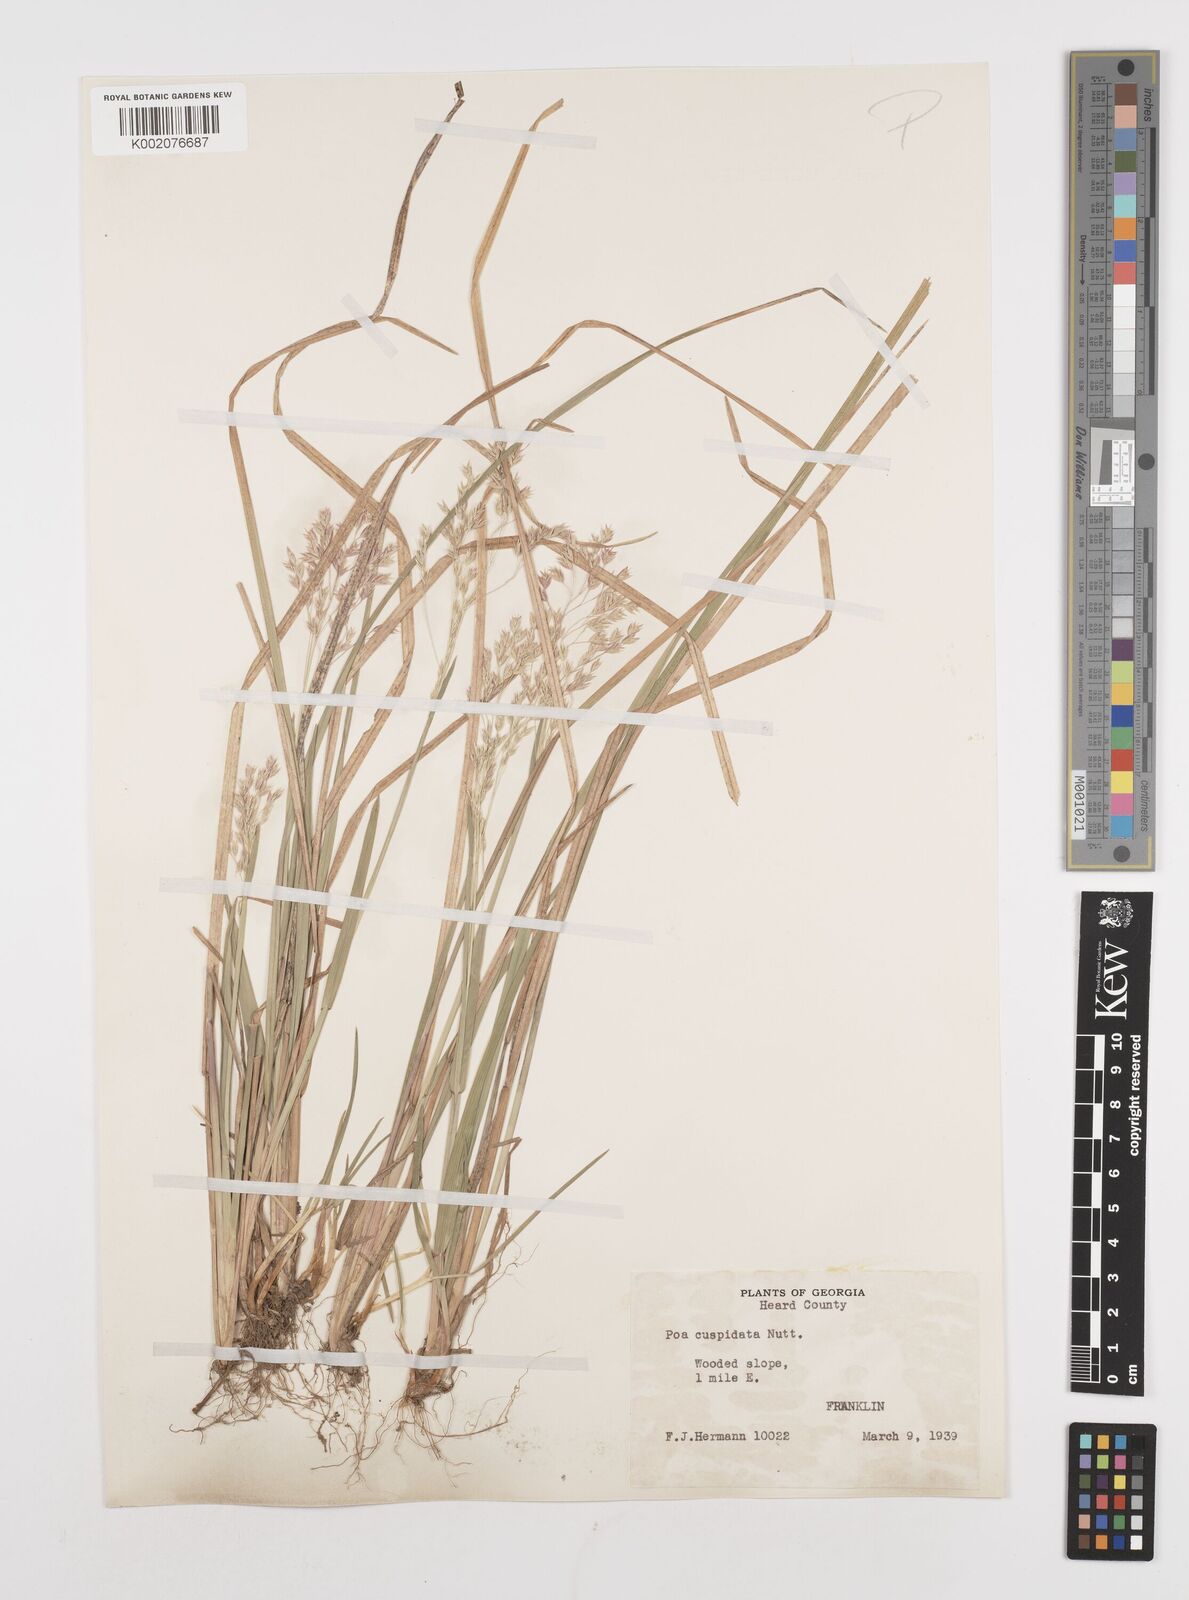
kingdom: Plantae
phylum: Tracheophyta
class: Liliopsida
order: Poales
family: Poaceae
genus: Poa
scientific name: Poa cuspidata
